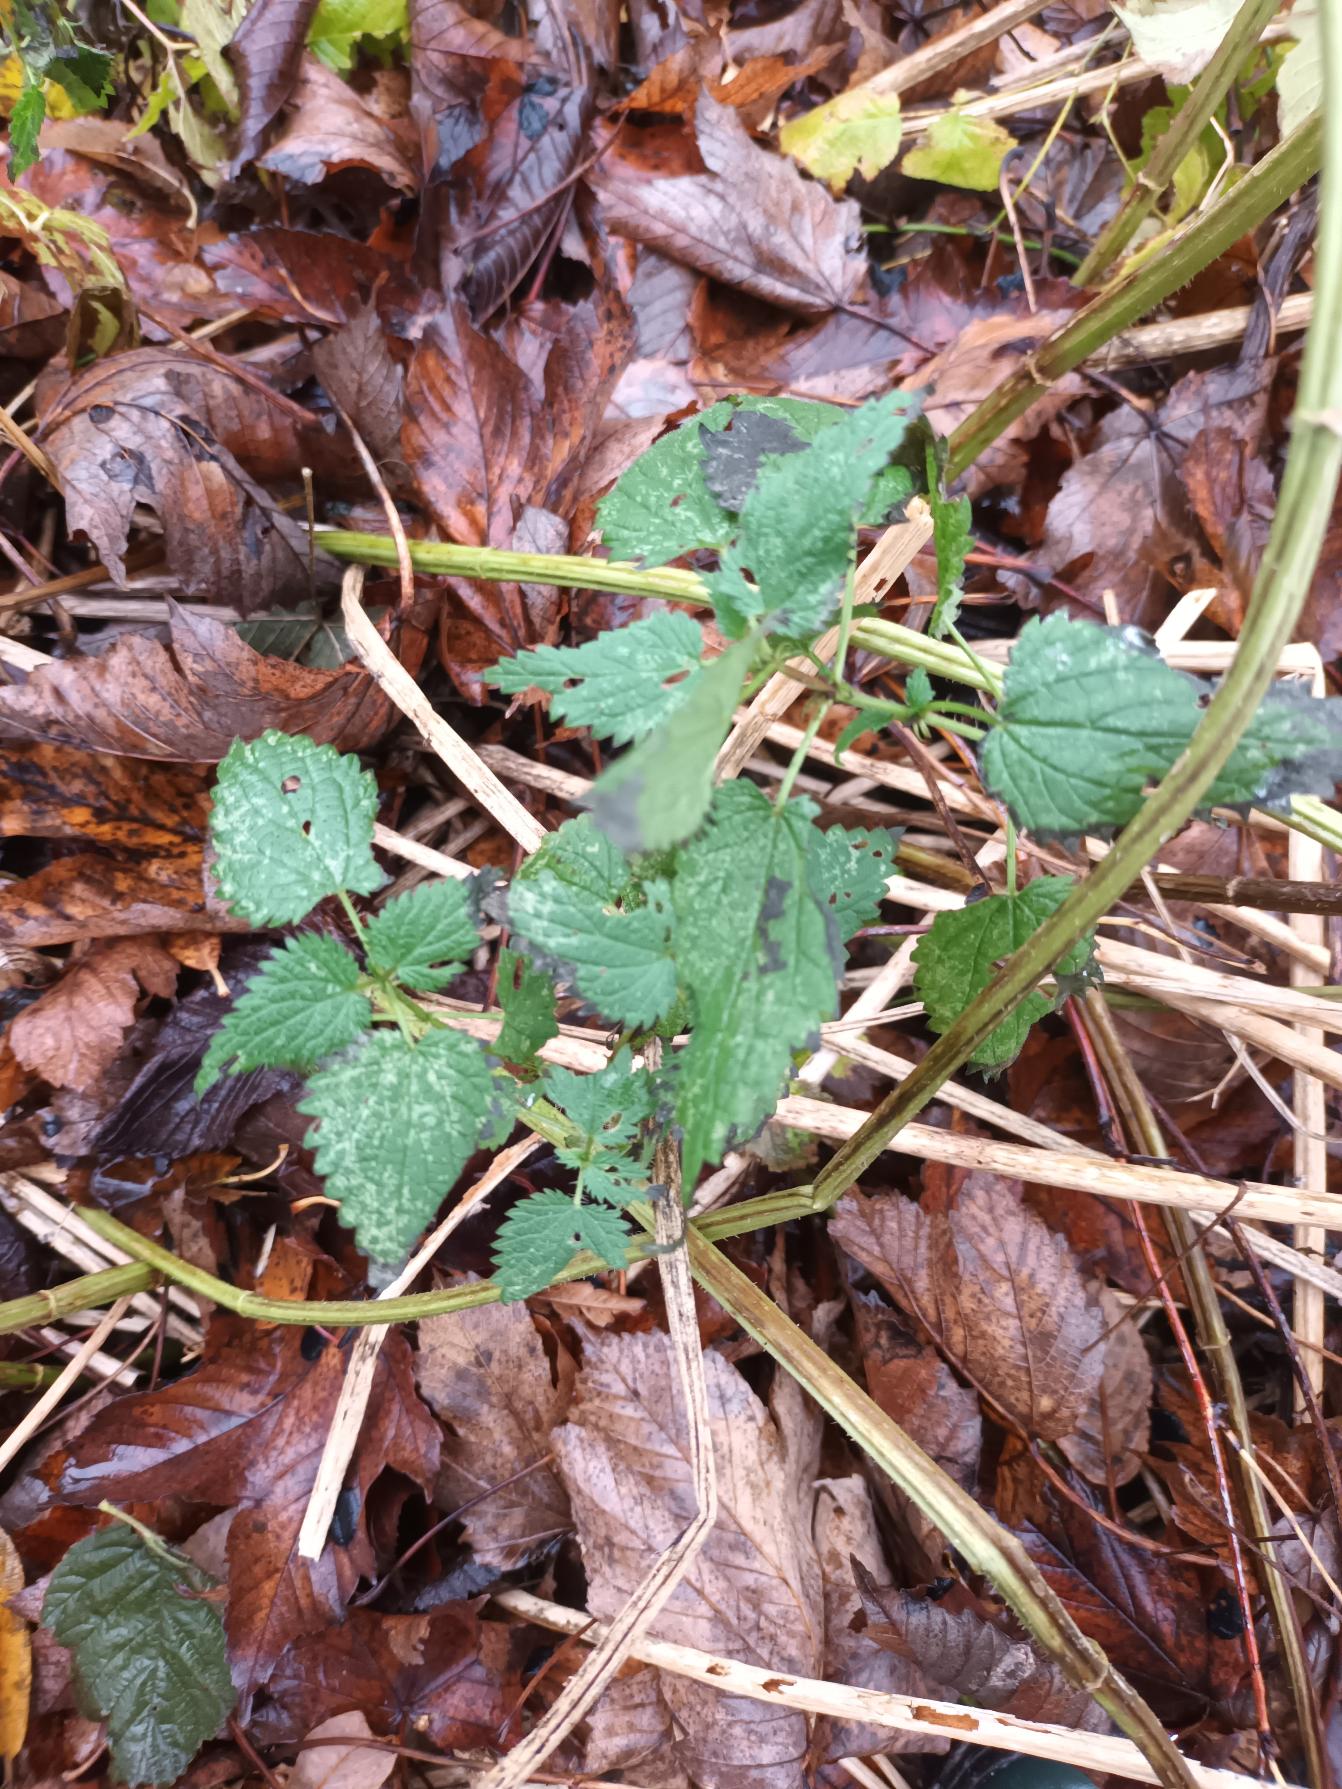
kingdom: Plantae
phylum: Tracheophyta
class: Magnoliopsida
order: Rosales
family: Urticaceae
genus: Urtica
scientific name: Urtica dioica
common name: Stor nælde
